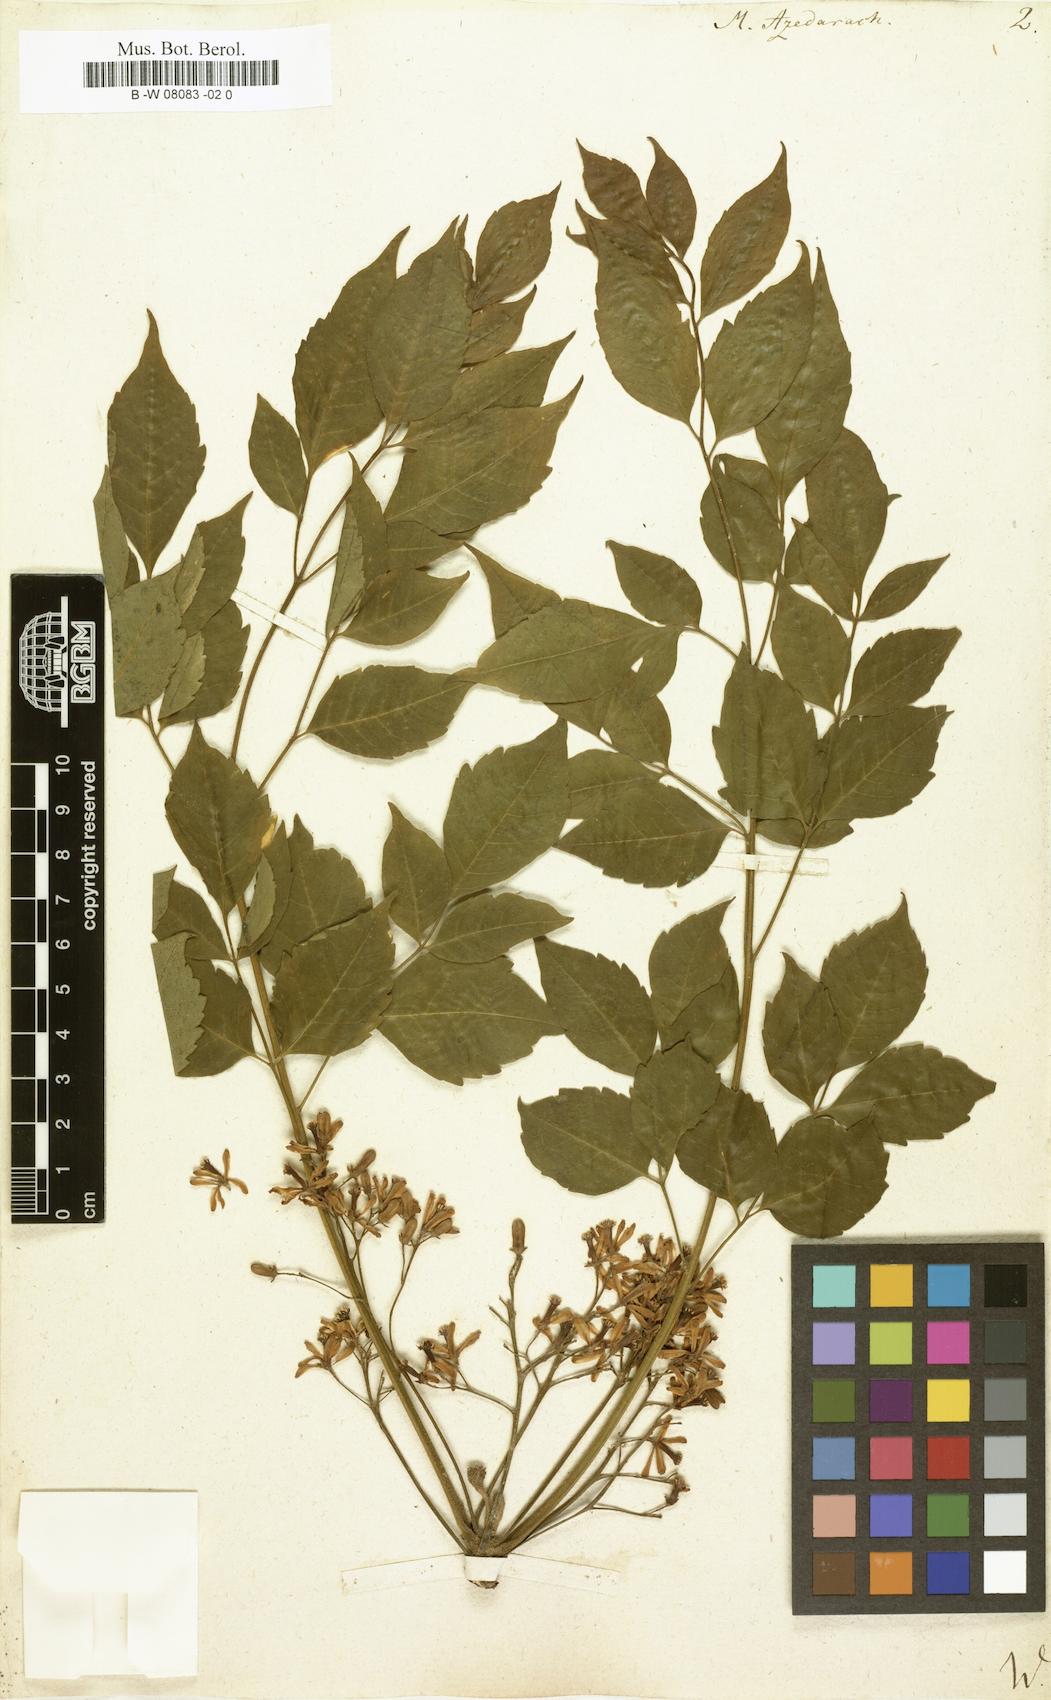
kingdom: Plantae
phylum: Tracheophyta
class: Magnoliopsida
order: Sapindales
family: Meliaceae
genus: Melia
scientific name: Melia azedarach
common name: Chinaberrytree
